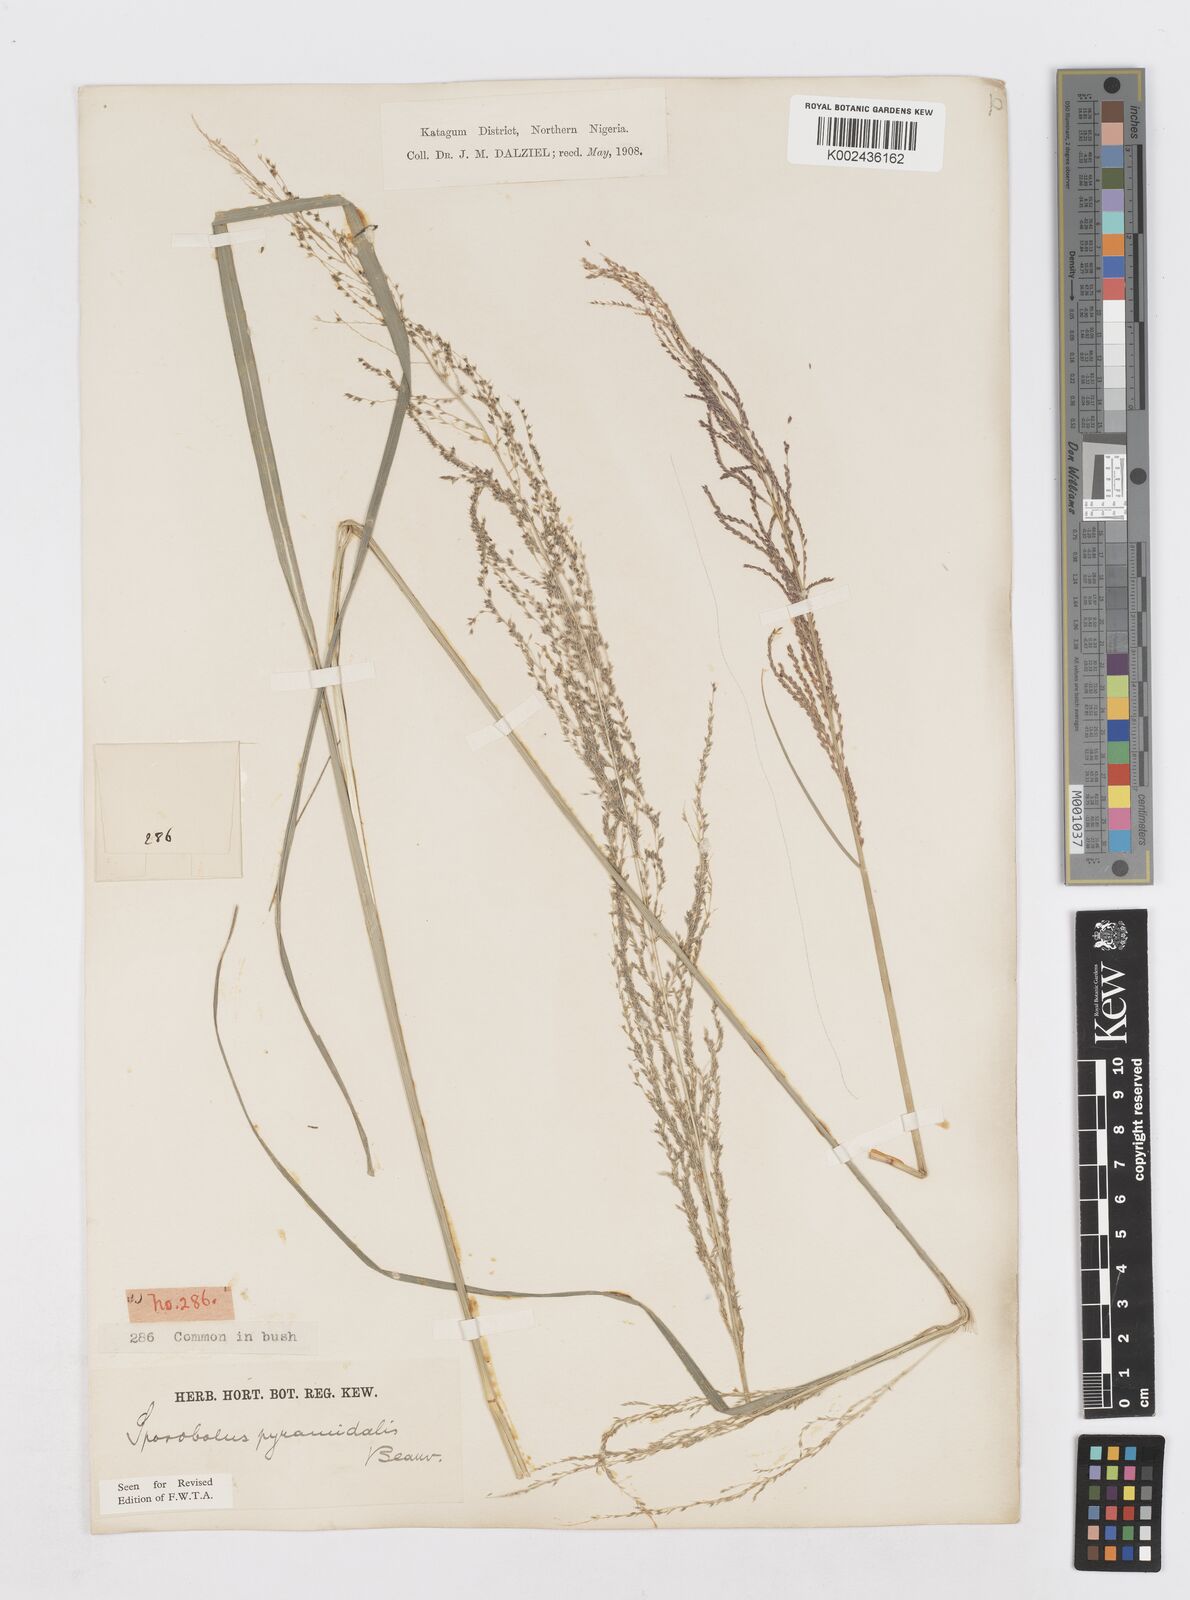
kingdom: Plantae
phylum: Tracheophyta
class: Liliopsida
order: Poales
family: Poaceae
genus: Sporobolus
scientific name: Sporobolus pyramidalis
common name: West indian dropseed
